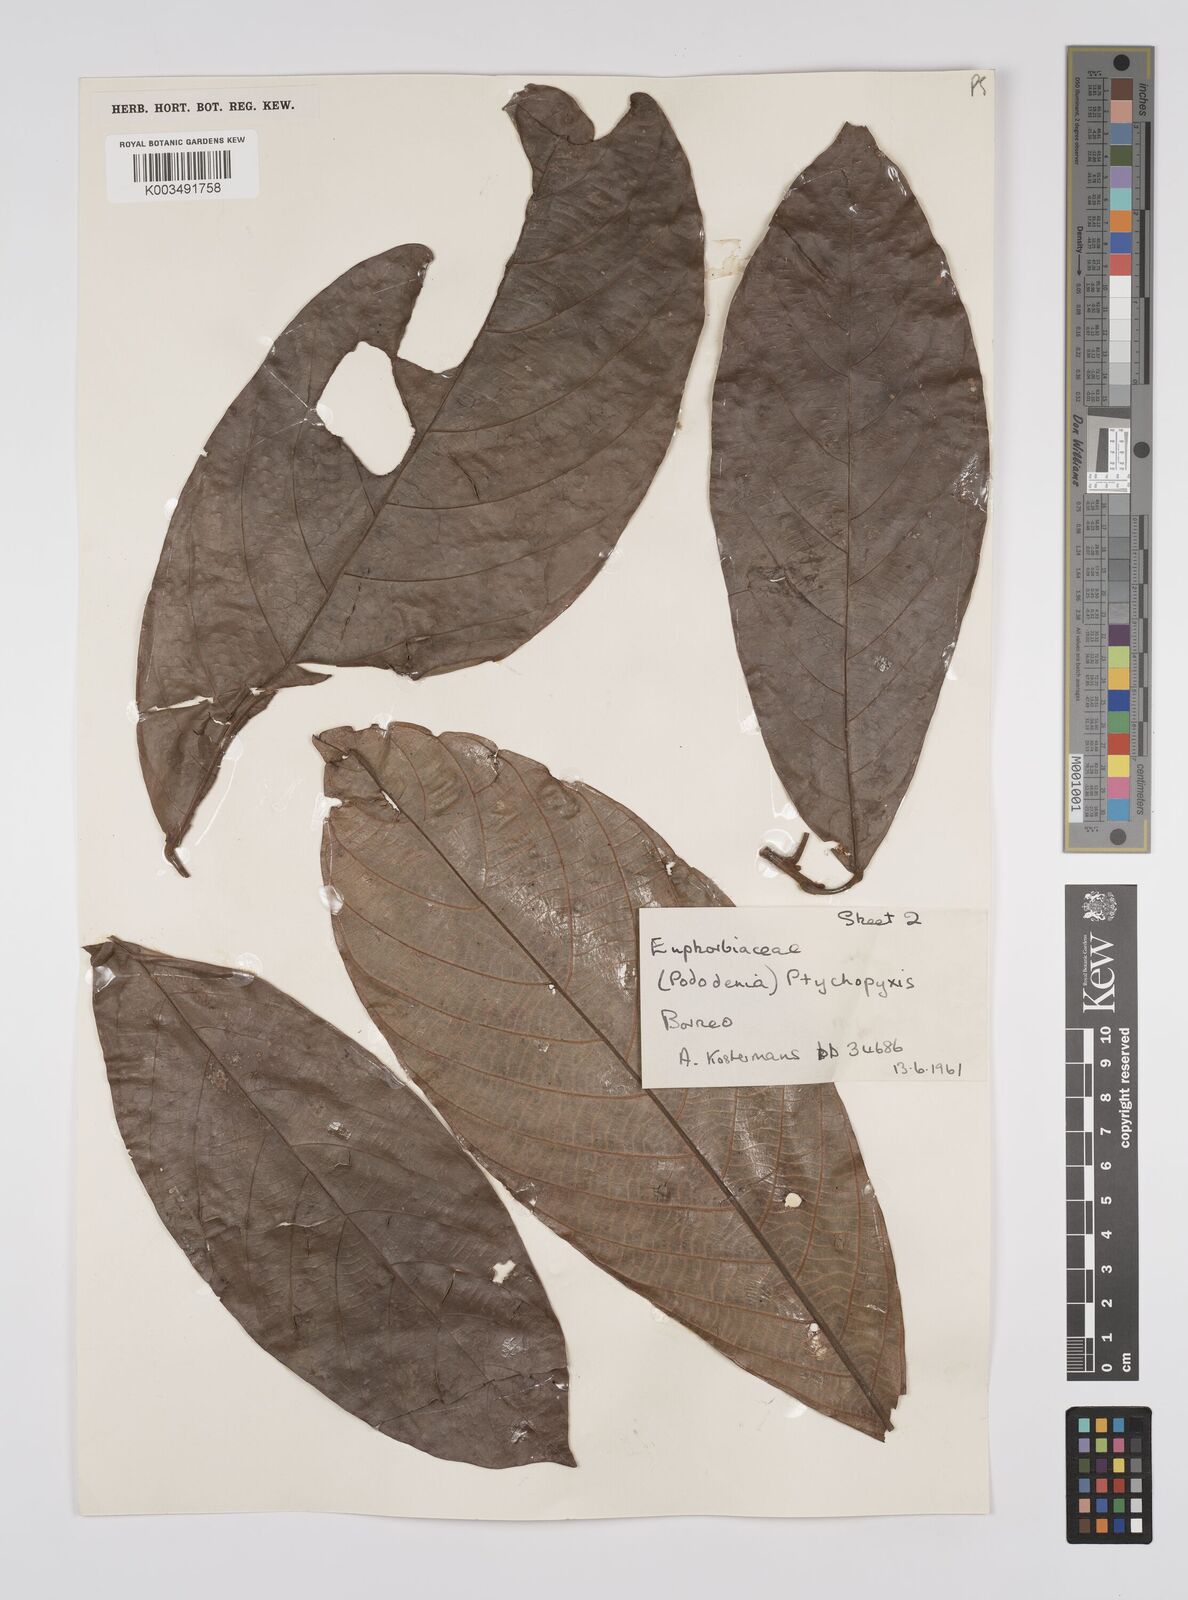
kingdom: Plantae
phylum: Tracheophyta
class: Magnoliopsida
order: Malpighiales
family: Euphorbiaceae
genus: Ptychopyxis
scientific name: Ptychopyxis arborea
